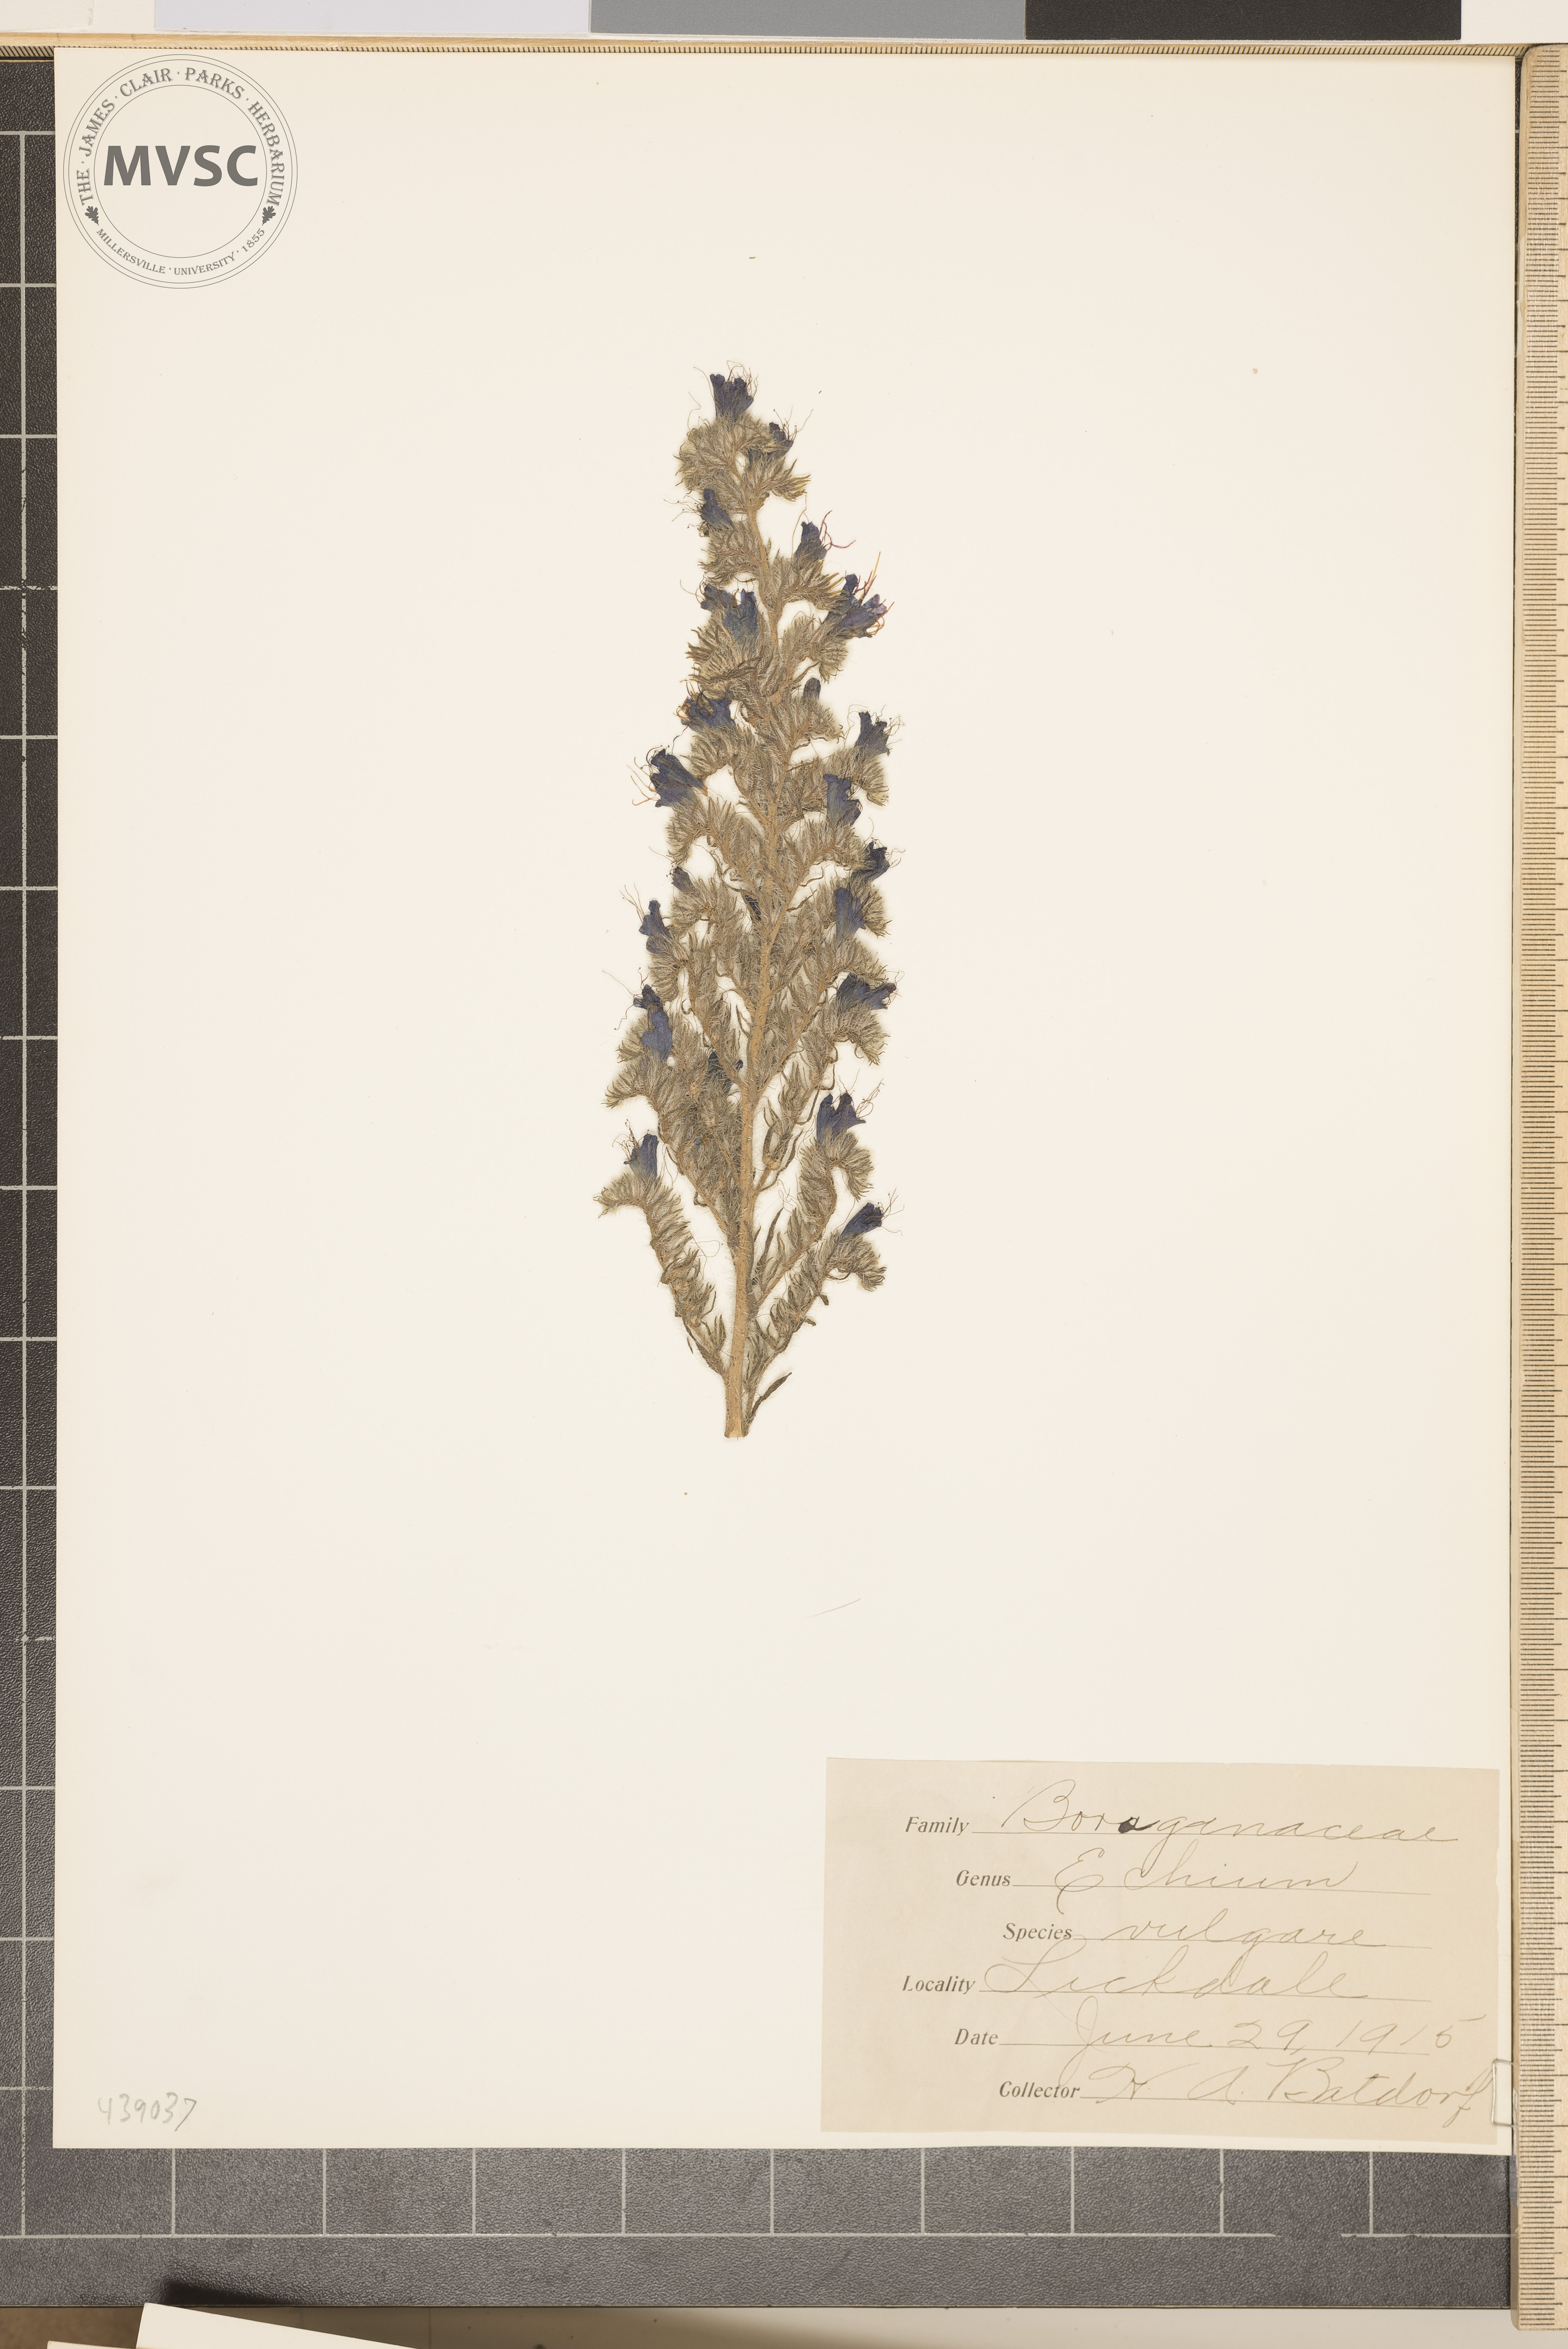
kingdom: Plantae
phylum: Tracheophyta
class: Magnoliopsida
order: Boraginales
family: Boraginaceae
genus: Echium
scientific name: Echium vulgare
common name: Common viper's bugloss
